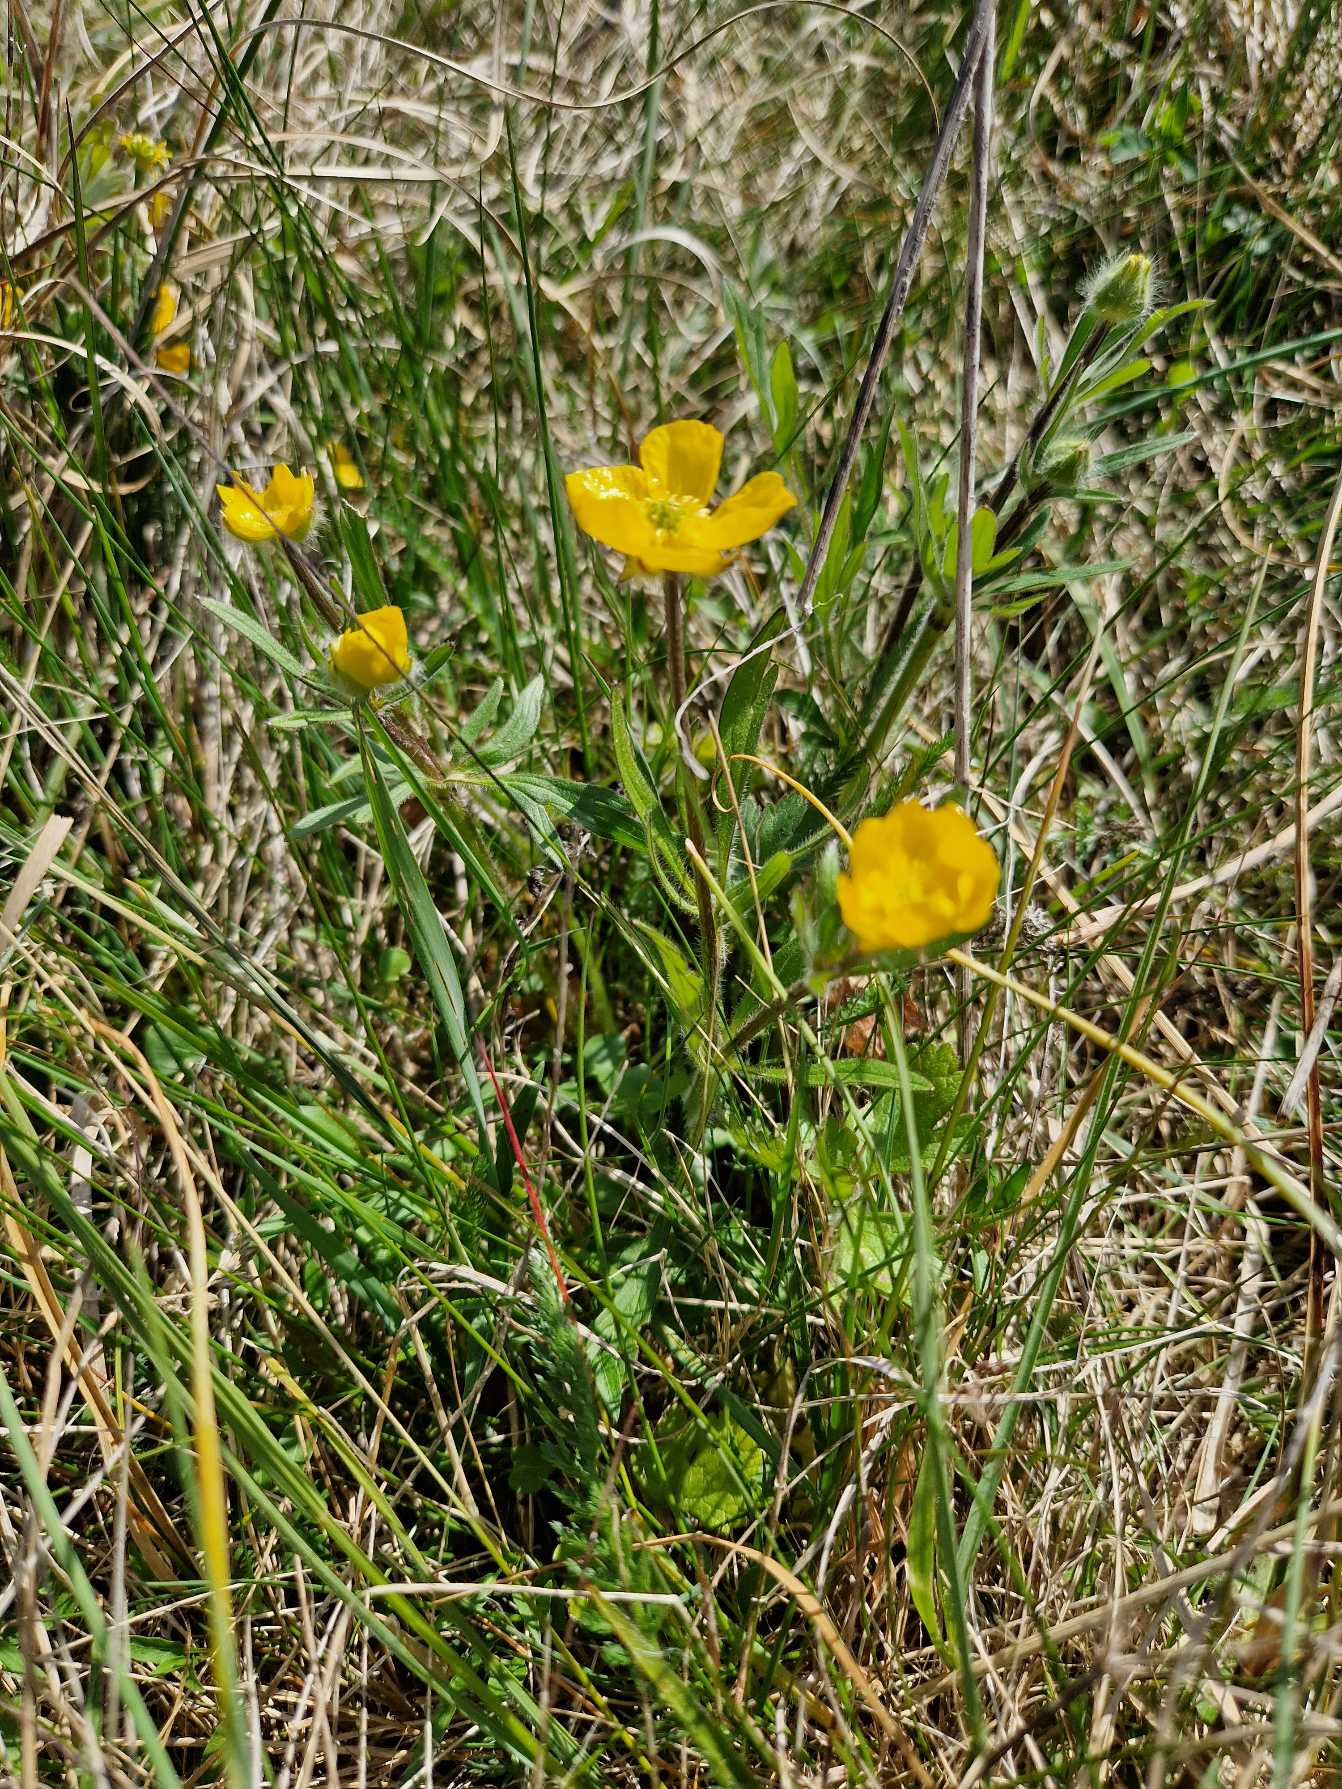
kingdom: Plantae
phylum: Tracheophyta
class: Magnoliopsida
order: Ranunculales
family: Ranunculaceae
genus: Ranunculus
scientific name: Ranunculus bulbosus
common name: Knold-ranunkel
